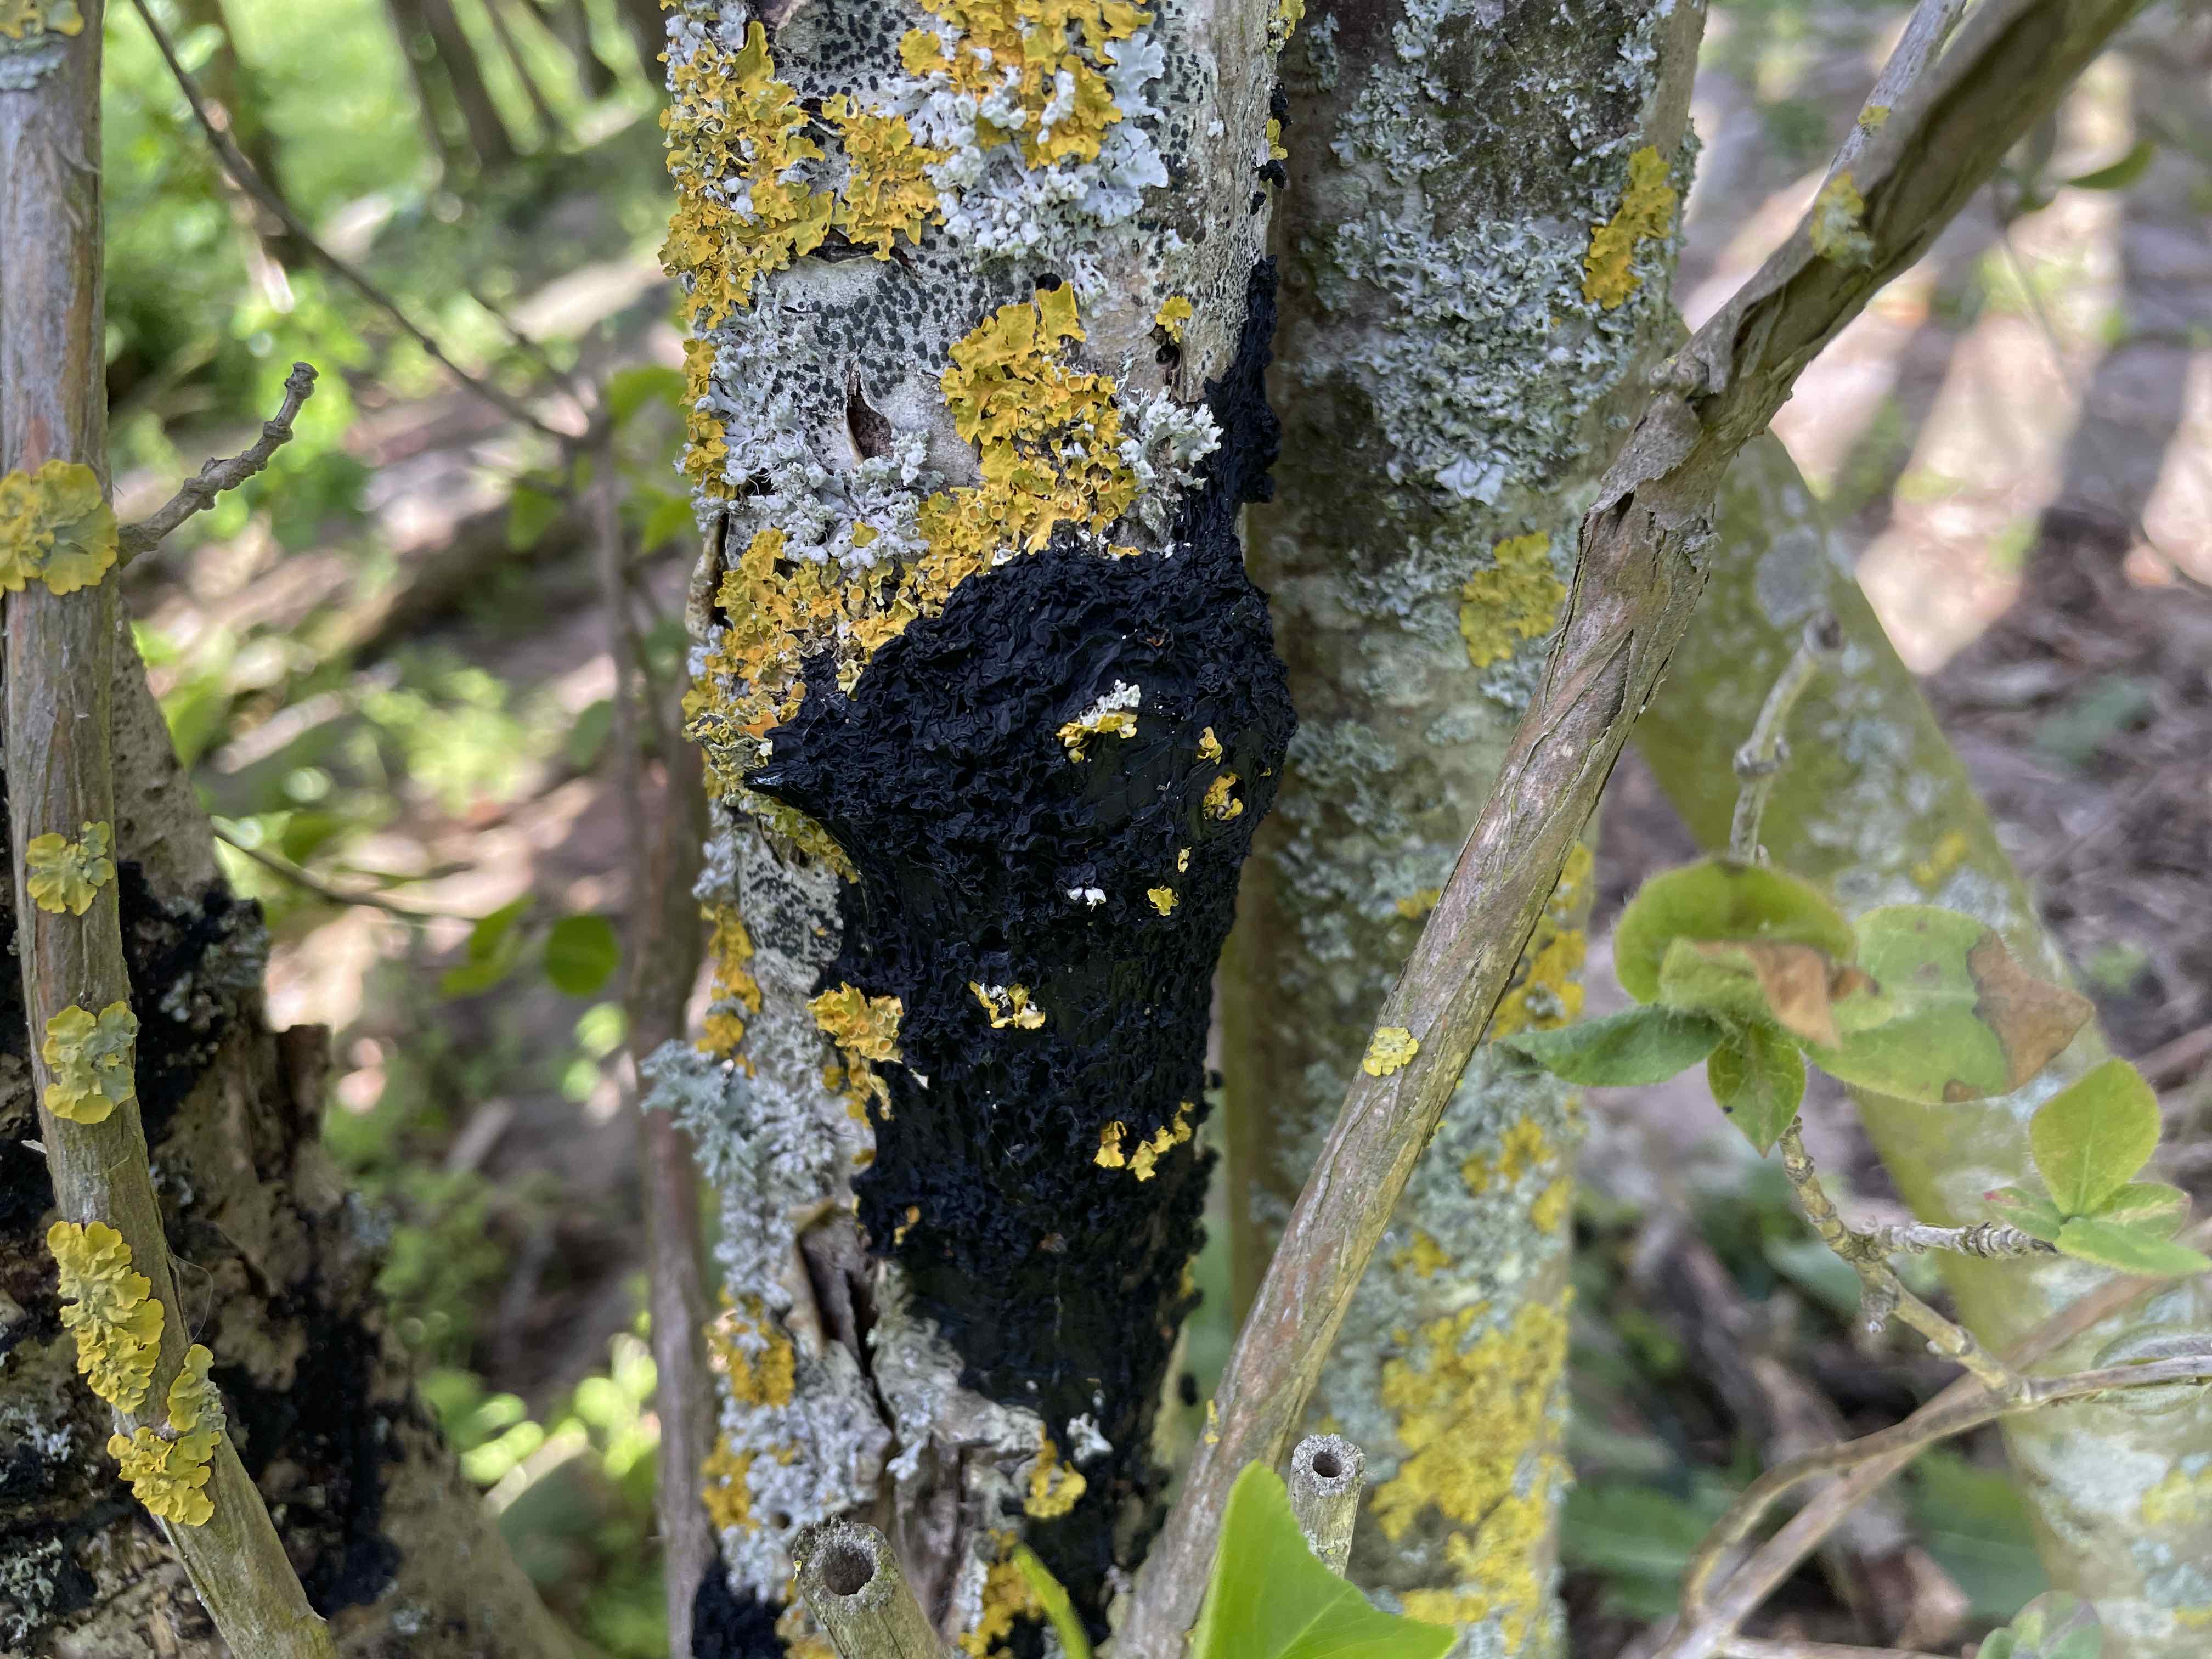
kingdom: Fungi
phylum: Basidiomycota
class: Agaricomycetes
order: Auriculariales
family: Auriculariaceae
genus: Exidia
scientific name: Exidia nigricans
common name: almindelig bævretop
